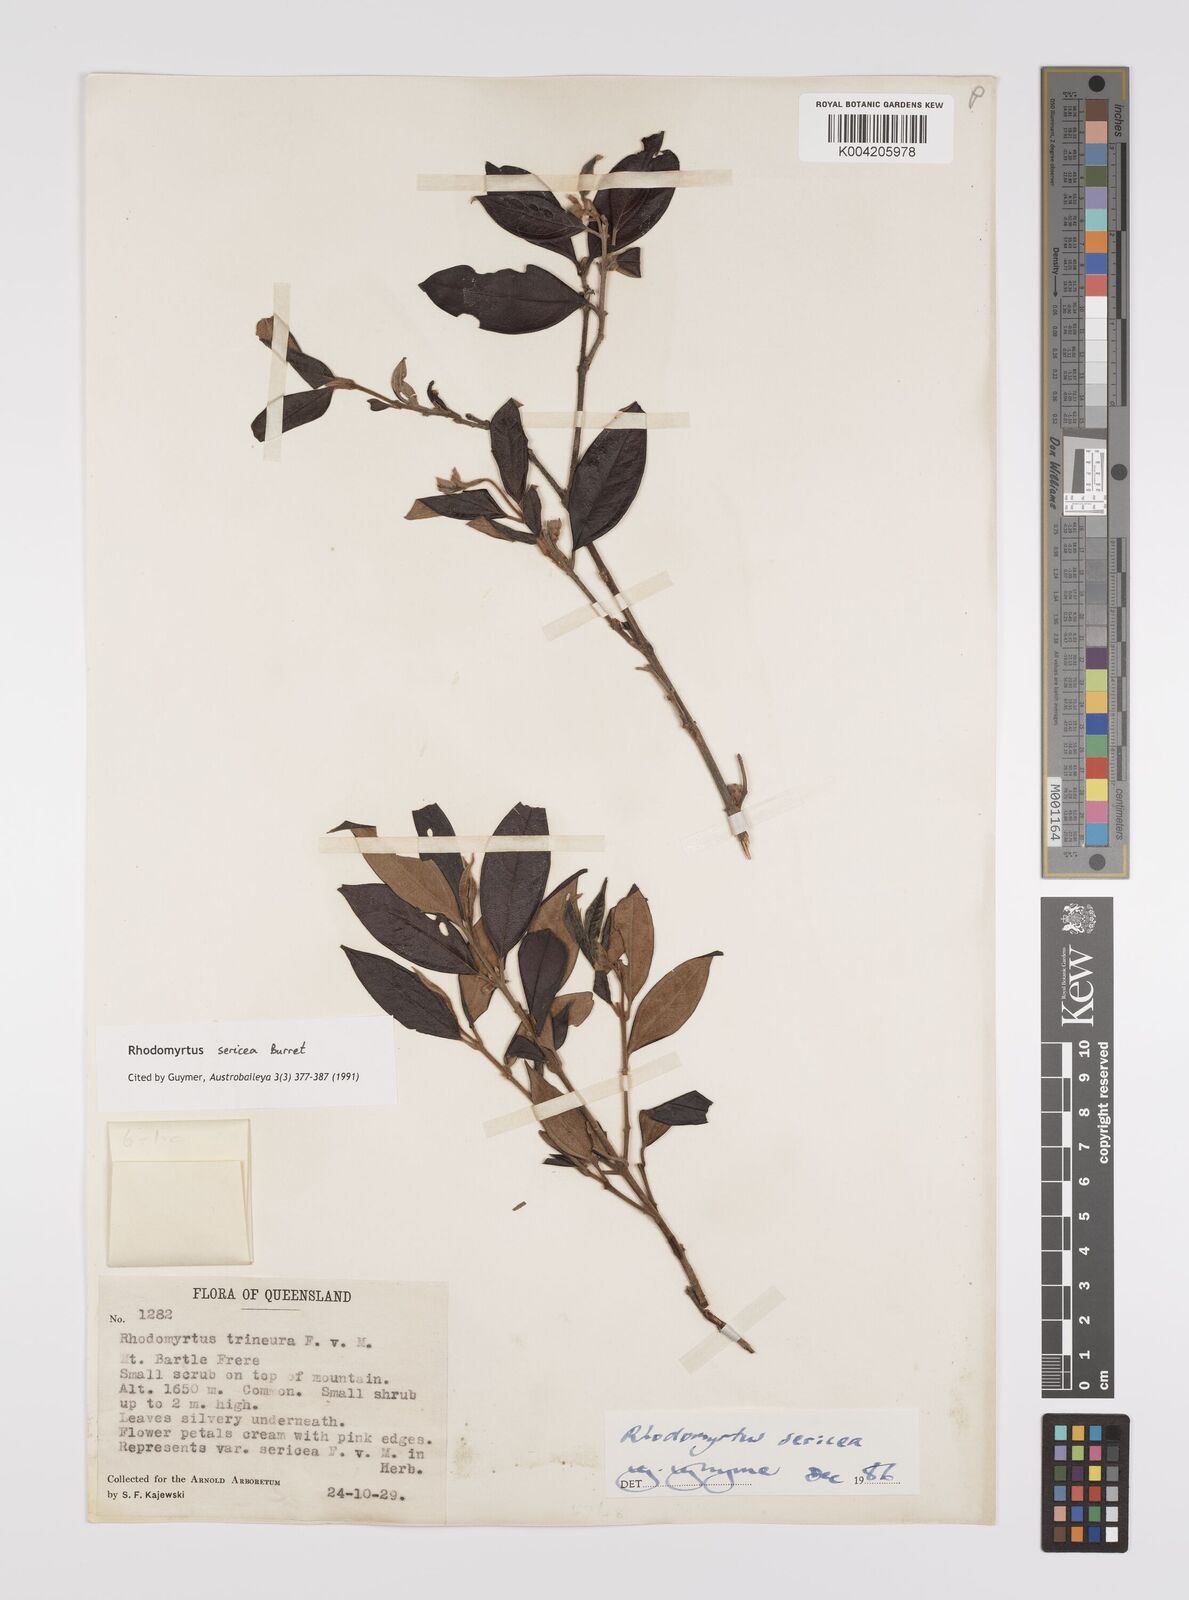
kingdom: Plantae
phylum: Tracheophyta
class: Magnoliopsida
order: Myrtales
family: Myrtaceae
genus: Rhodomyrtus
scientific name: Rhodomyrtus sericea
